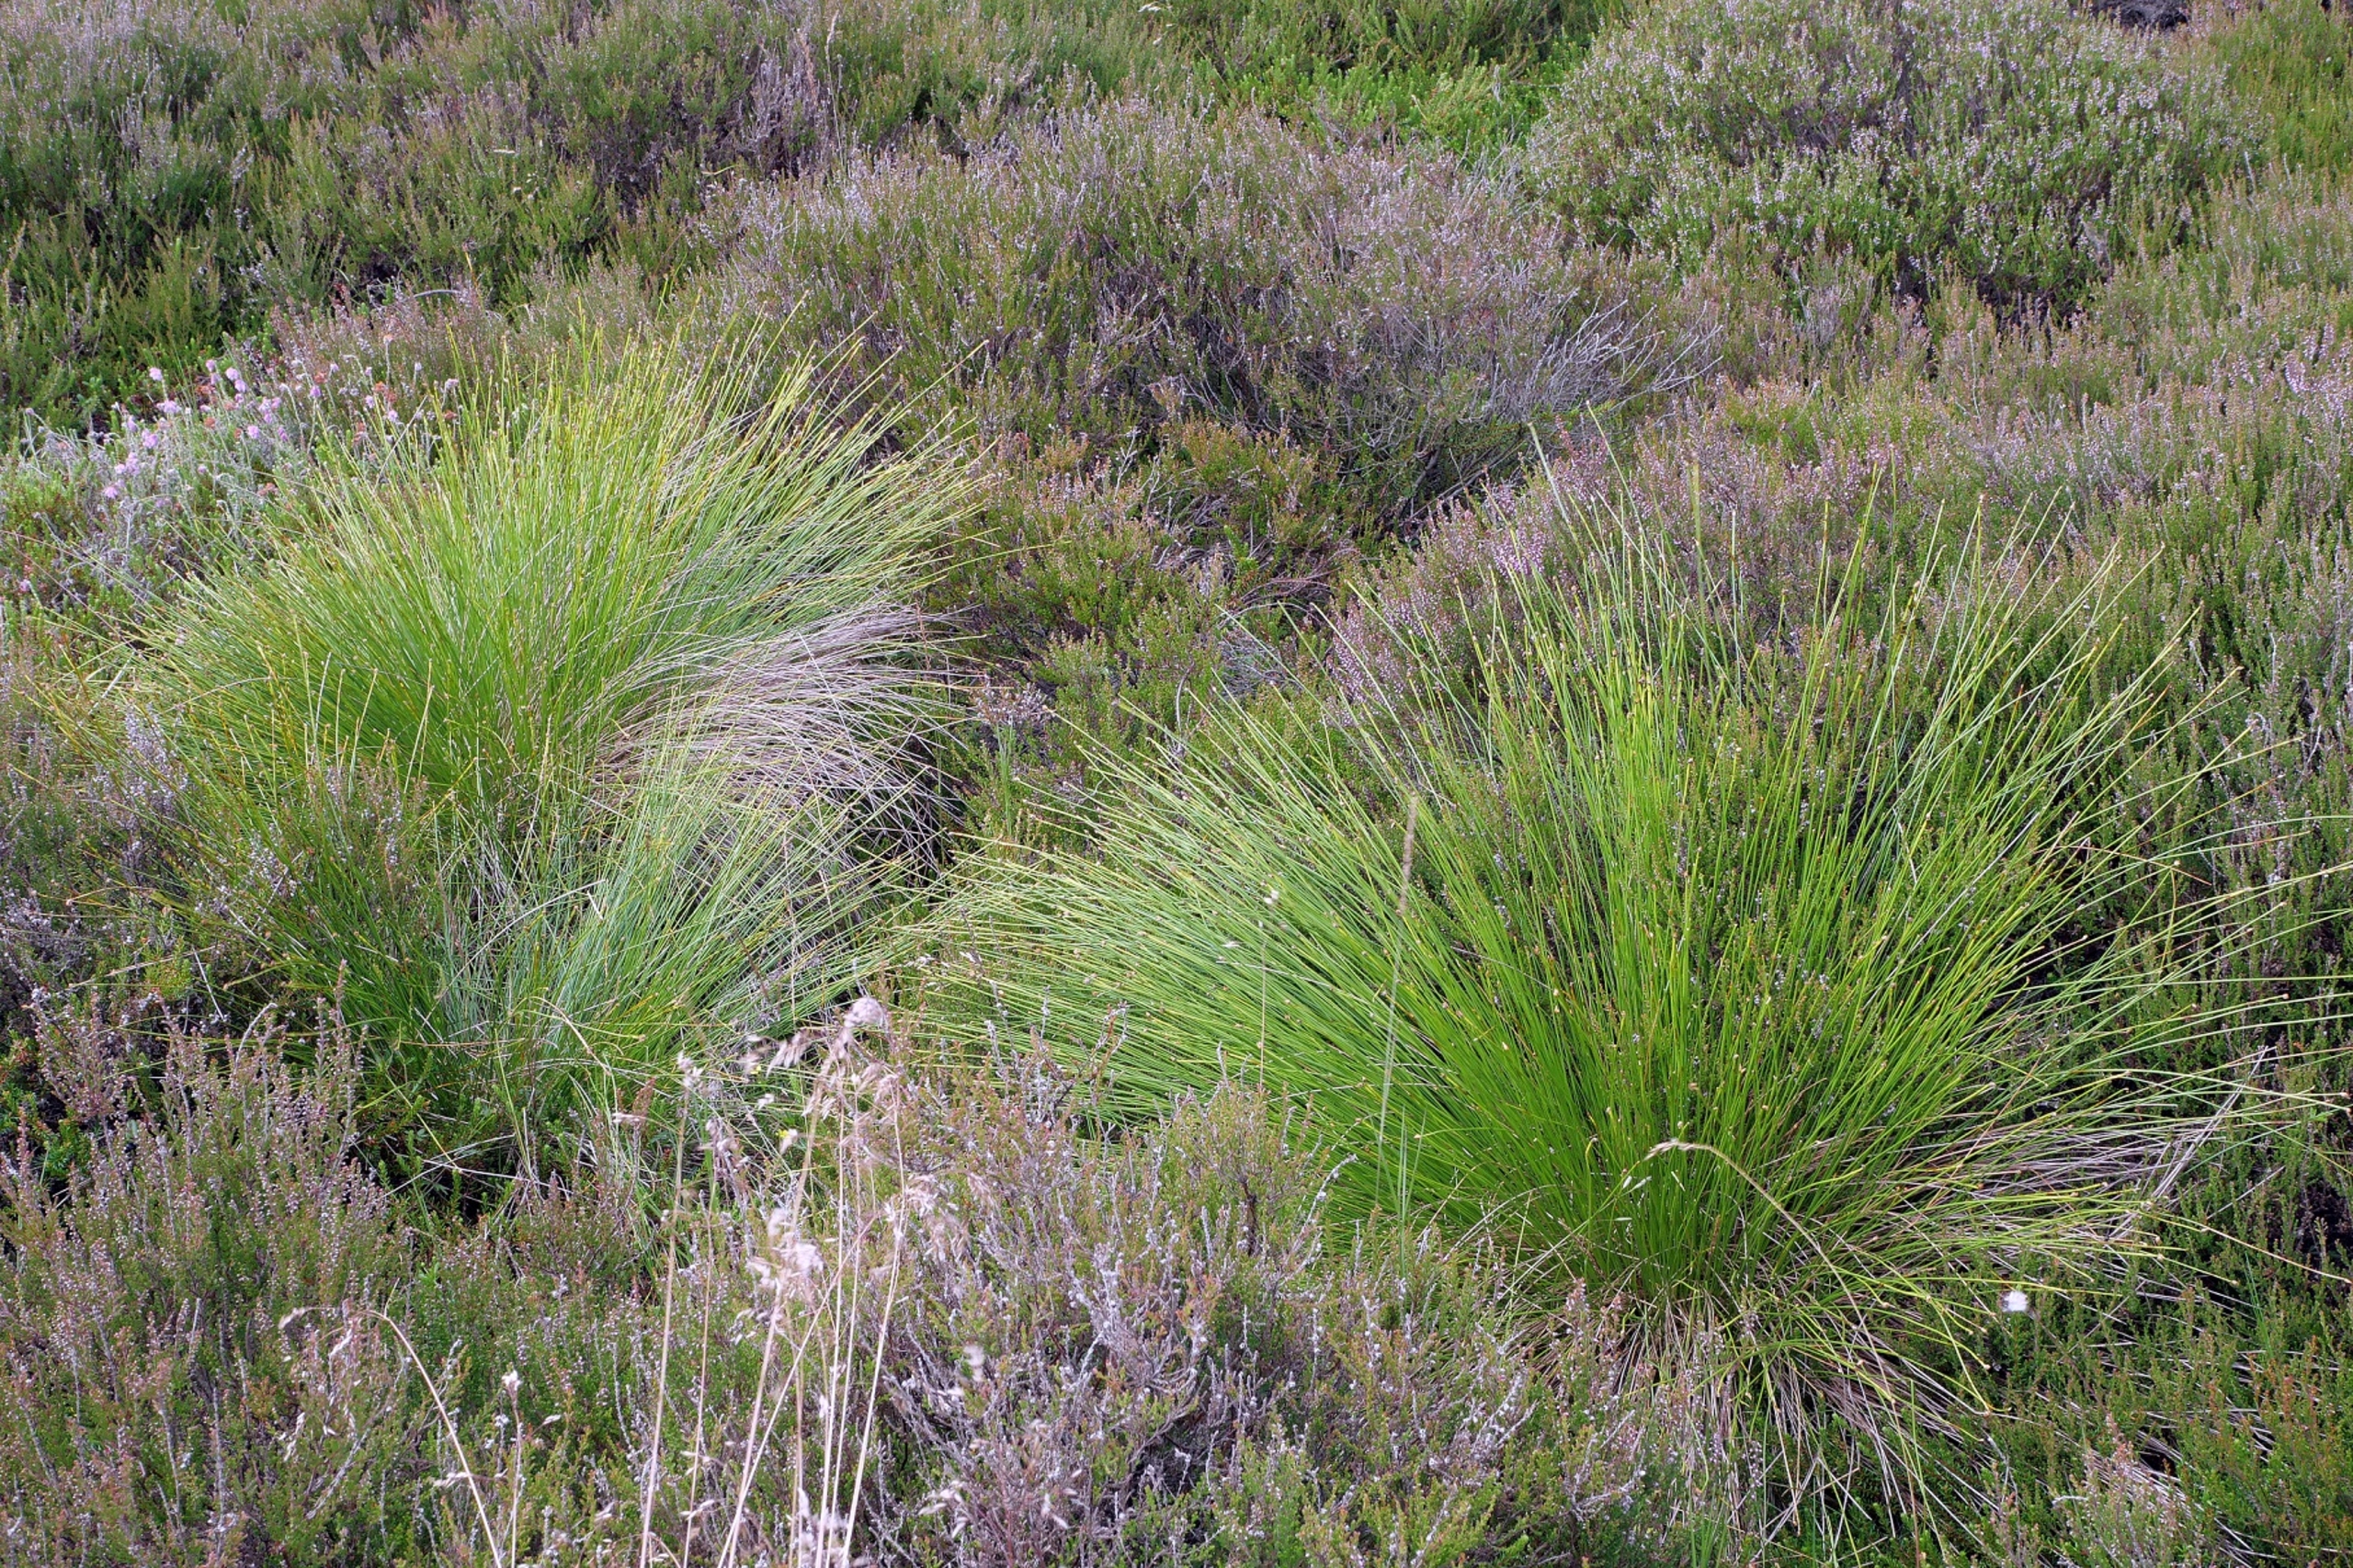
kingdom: Plantae
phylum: Tracheophyta
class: Liliopsida
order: Poales
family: Cyperaceae
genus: Trichophorum
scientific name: Trichophorum cespitosum
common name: Vestlig tuekogleaks
